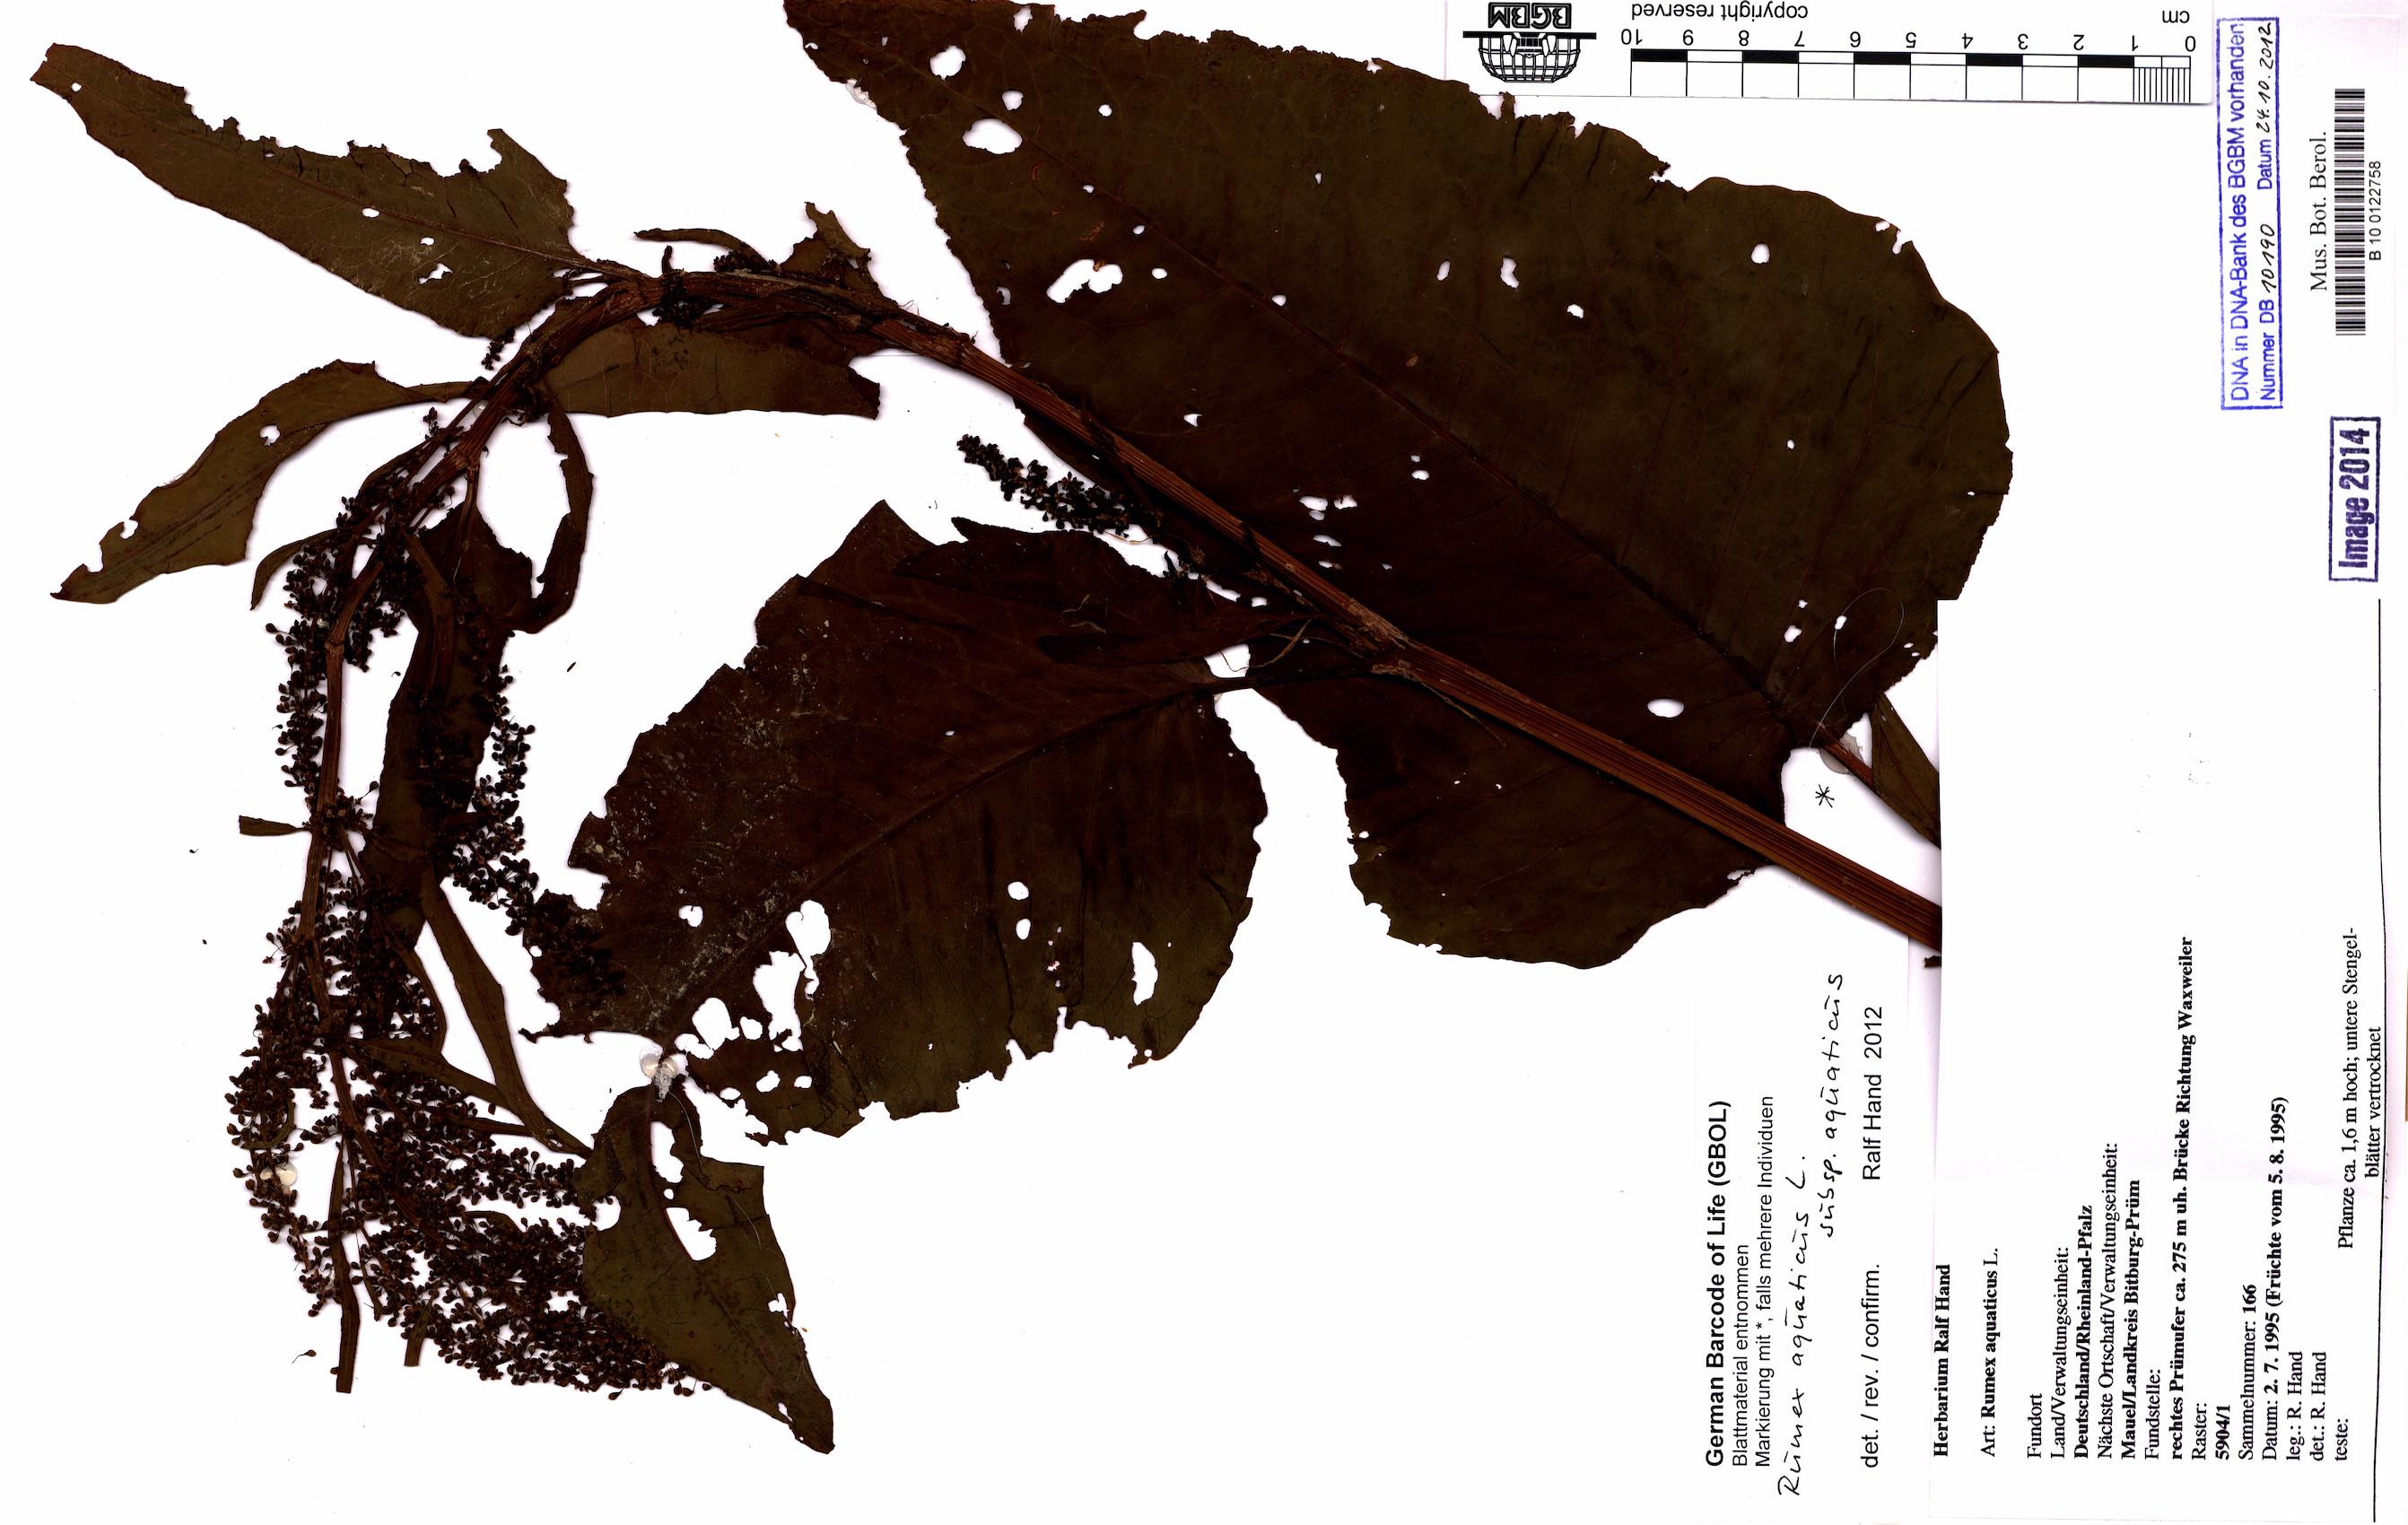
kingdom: Plantae
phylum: Tracheophyta
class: Magnoliopsida
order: Caryophyllales
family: Polygonaceae
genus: Rumex
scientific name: Rumex aquaticus
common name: Scottish dock
